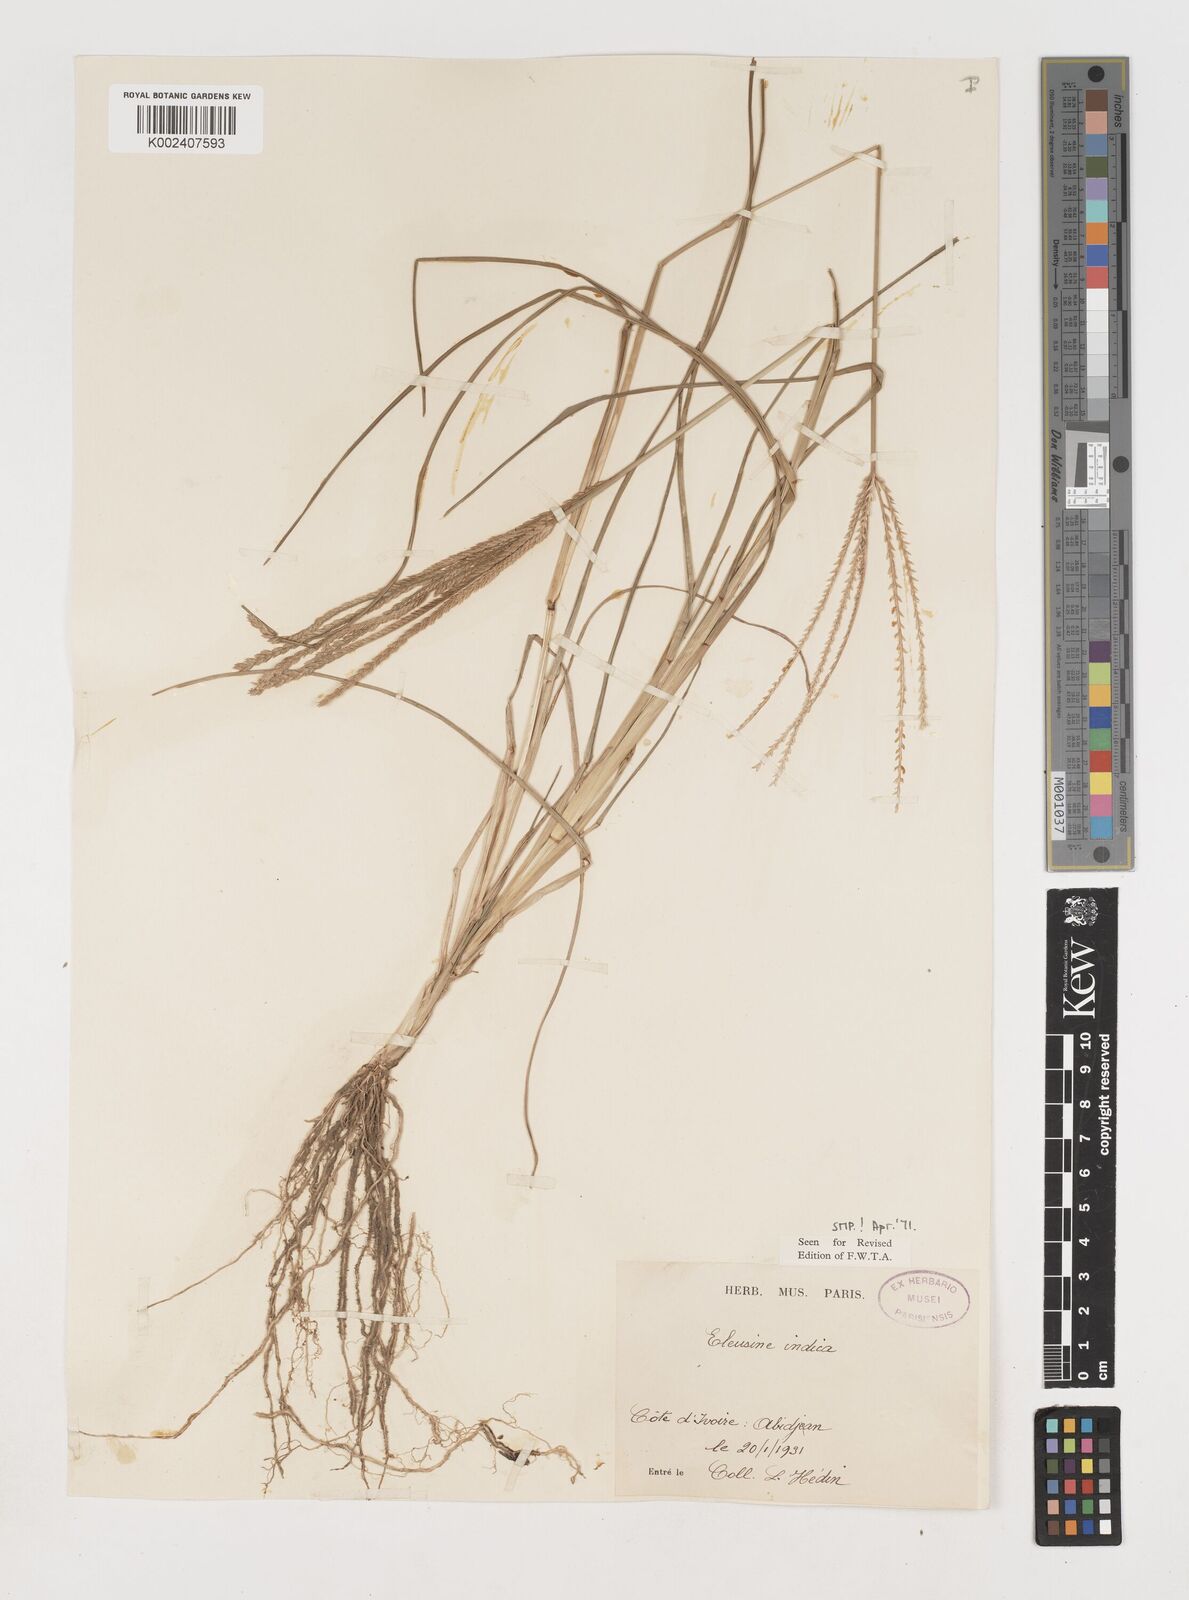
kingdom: Plantae
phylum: Tracheophyta
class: Liliopsida
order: Poales
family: Poaceae
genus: Eleusine
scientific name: Eleusine indica
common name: Yard-grass
